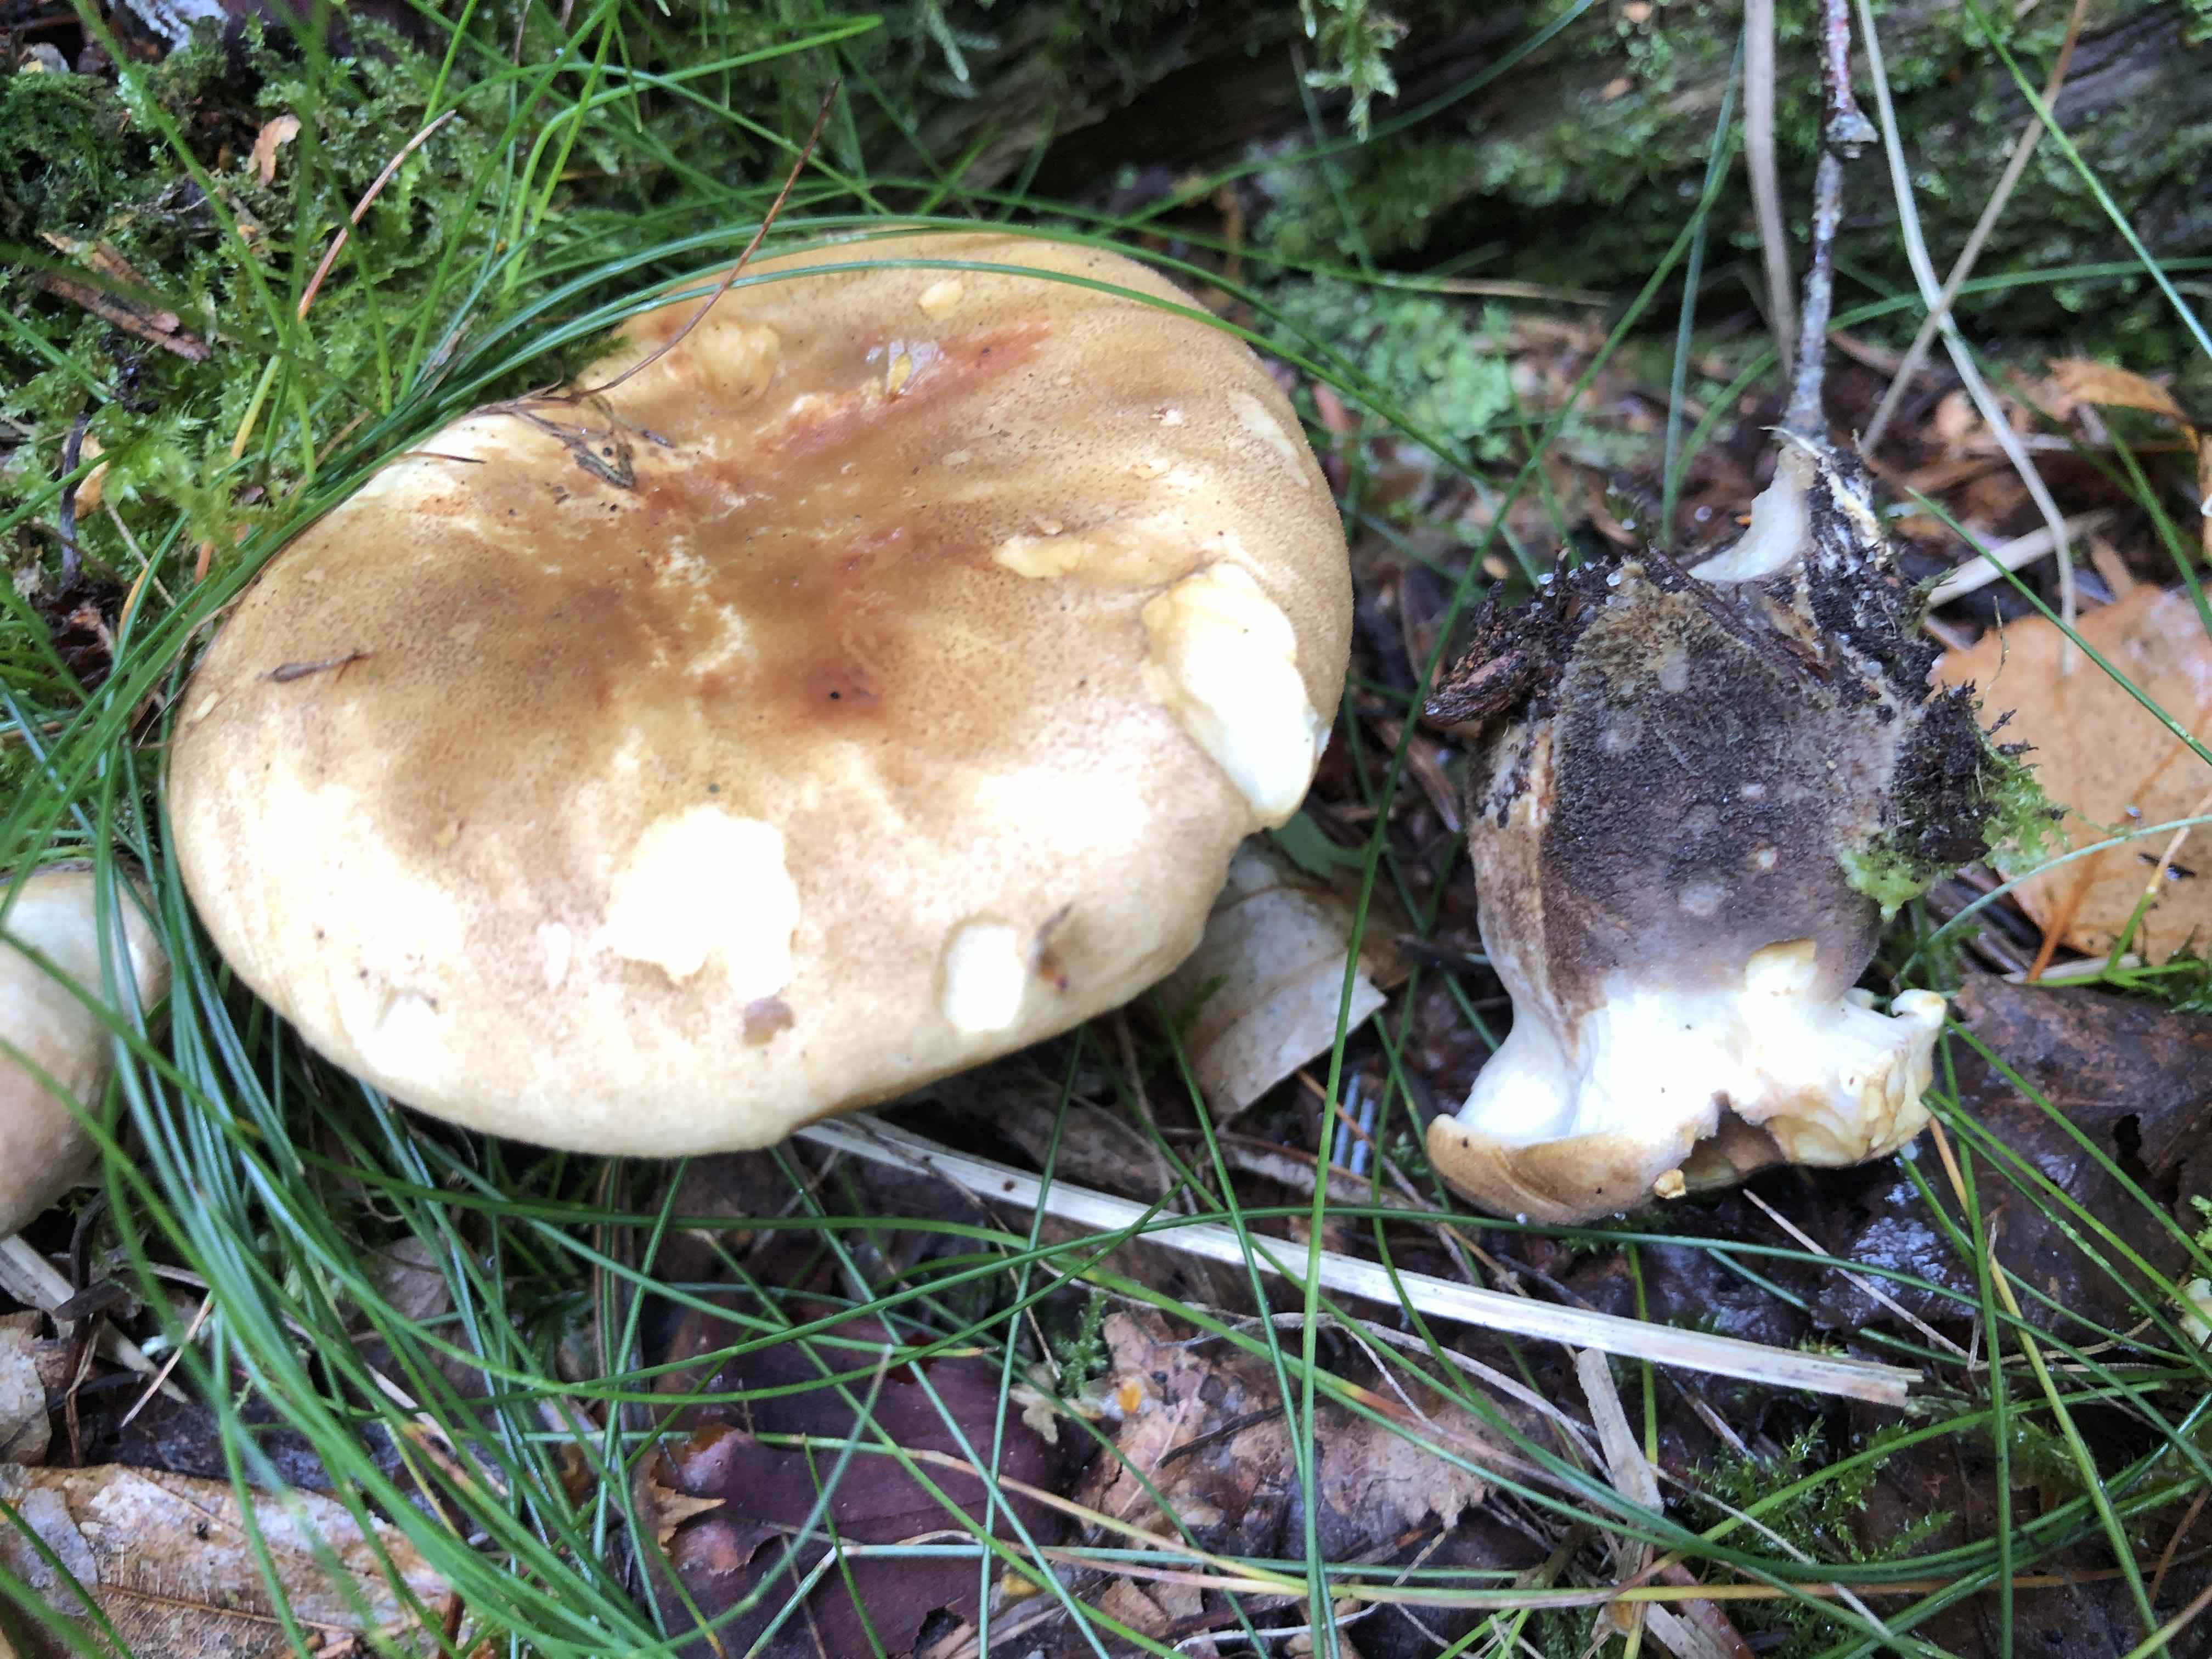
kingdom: Fungi
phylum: Basidiomycota
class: Agaricomycetes
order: Boletales
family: Tapinellaceae
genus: Tapinella
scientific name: Tapinella atrotomentosa
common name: sortfiltet viftesvamp
